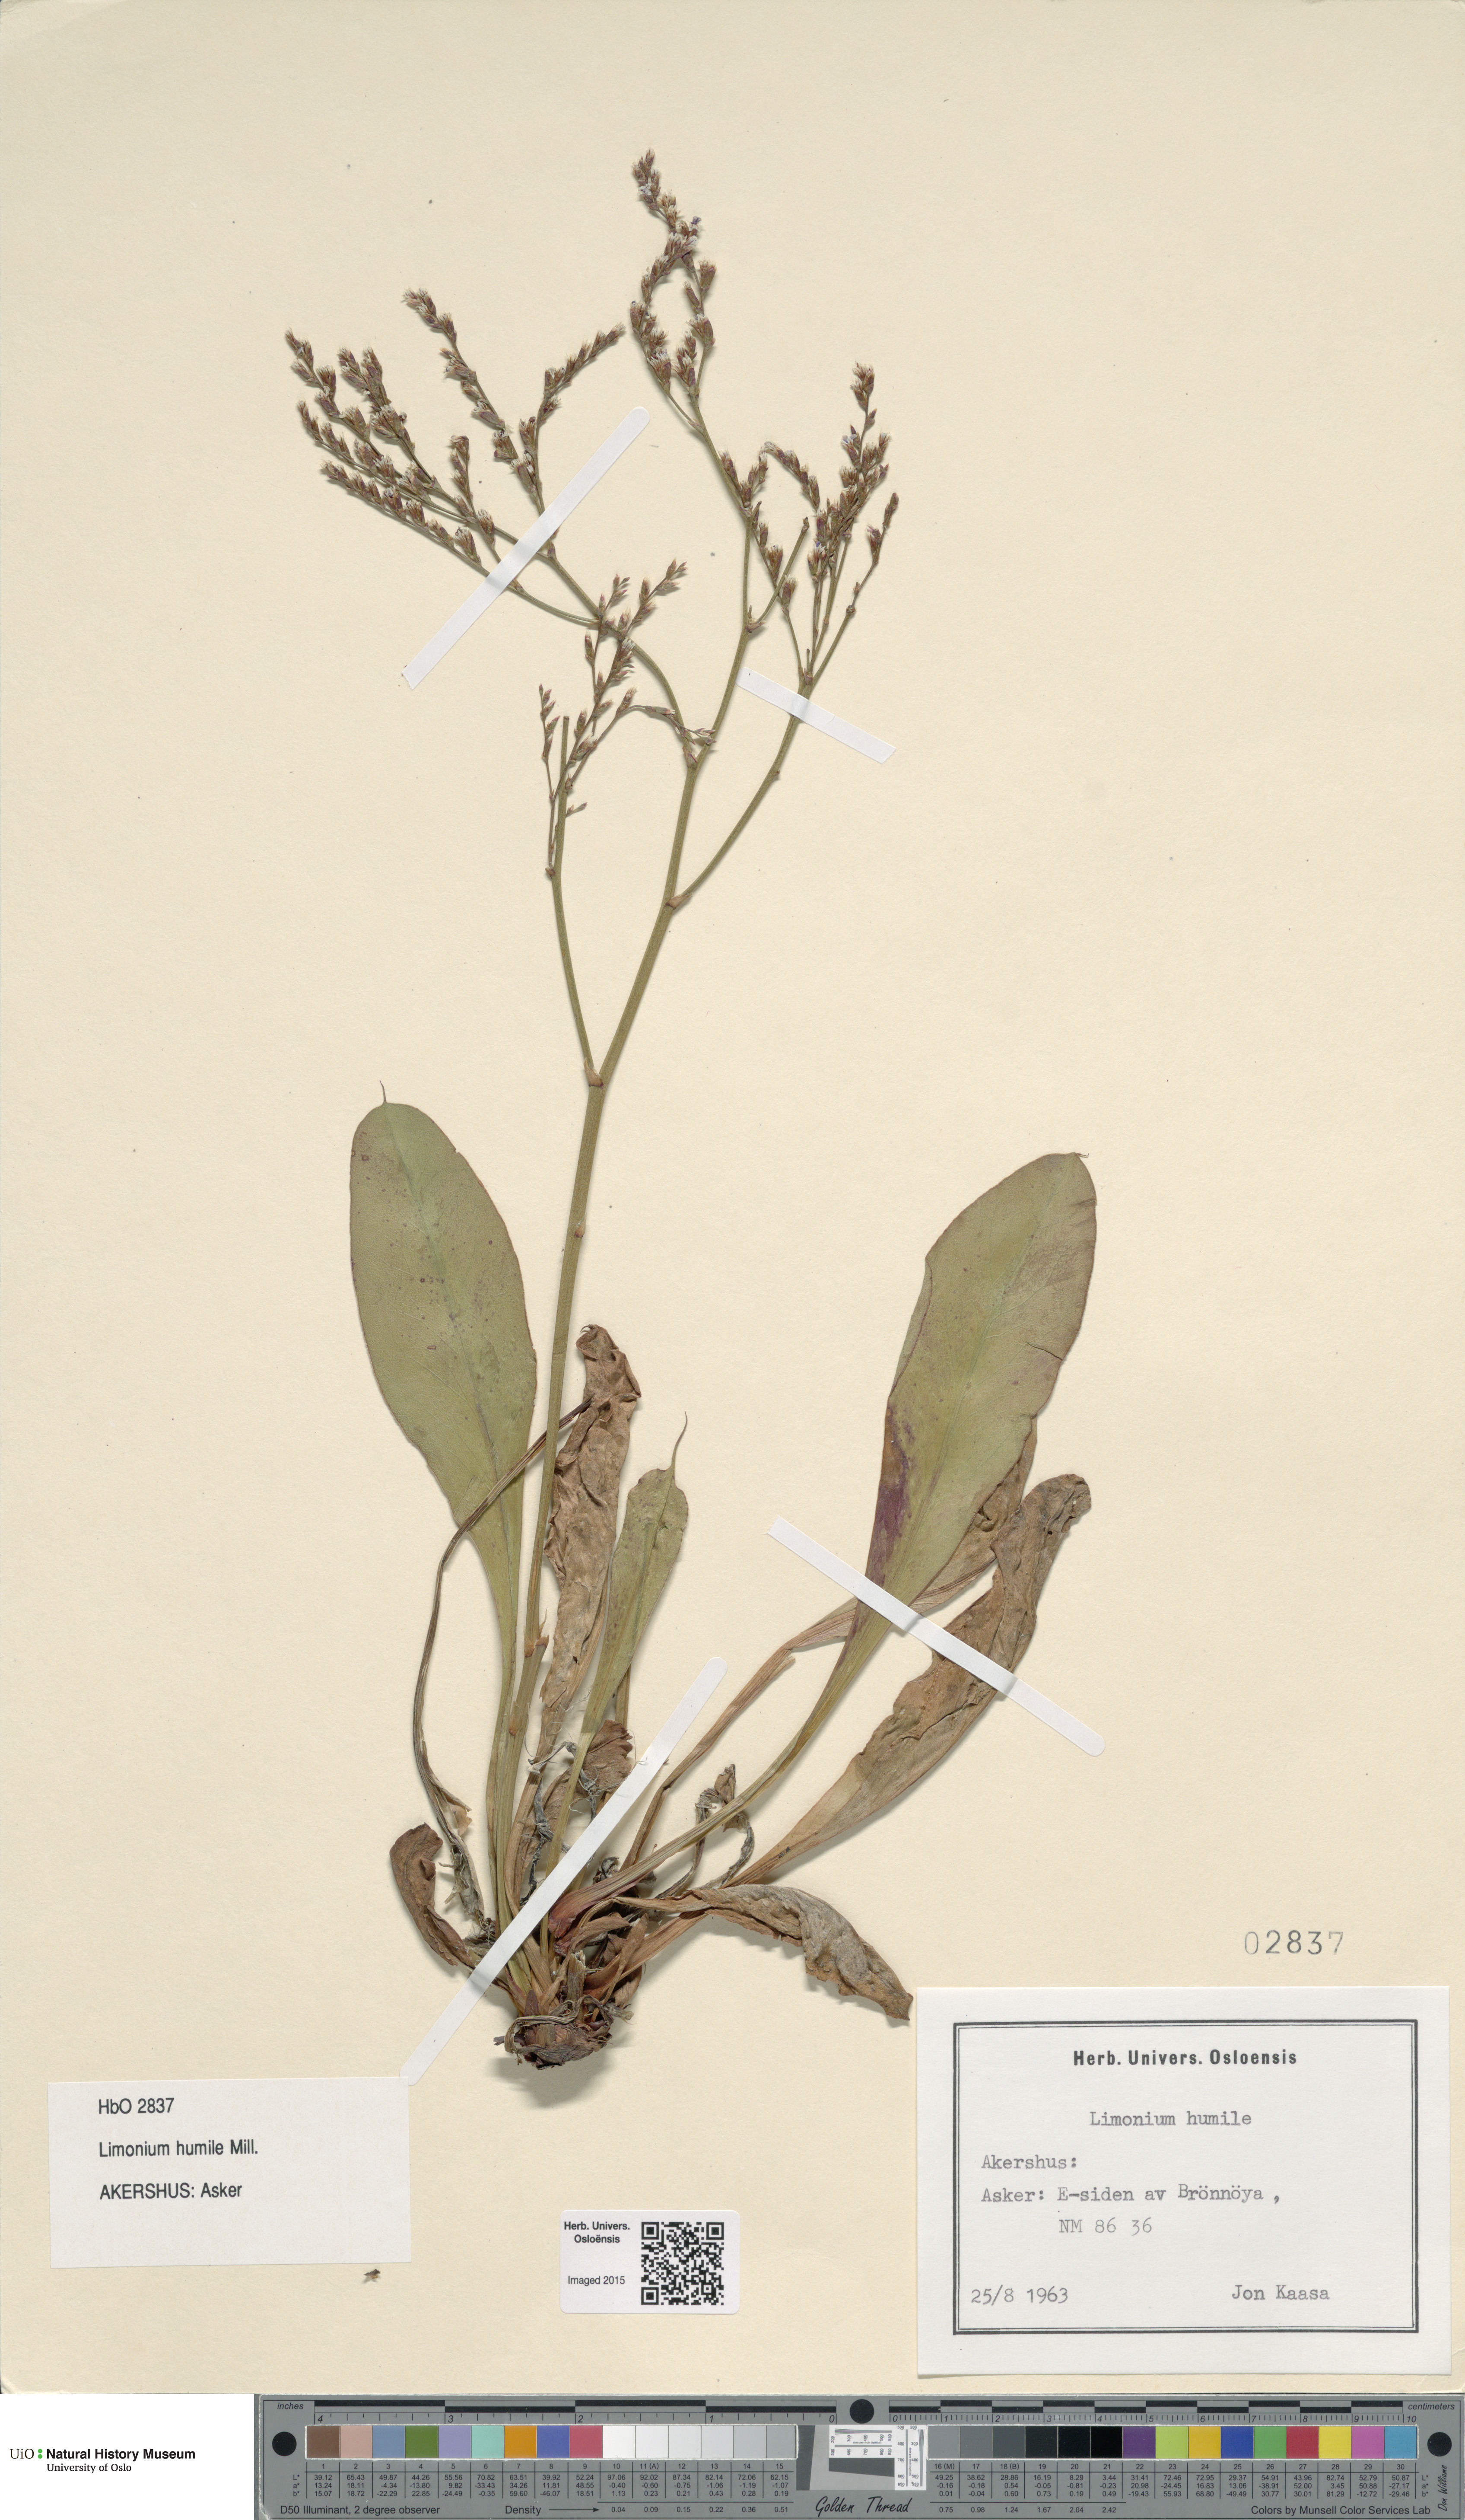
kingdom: Plantae
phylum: Tracheophyta
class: Magnoliopsida
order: Caryophyllales
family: Plumbaginaceae
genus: Limonium
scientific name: Limonium humile
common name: Lax-flowered sea-lavender
